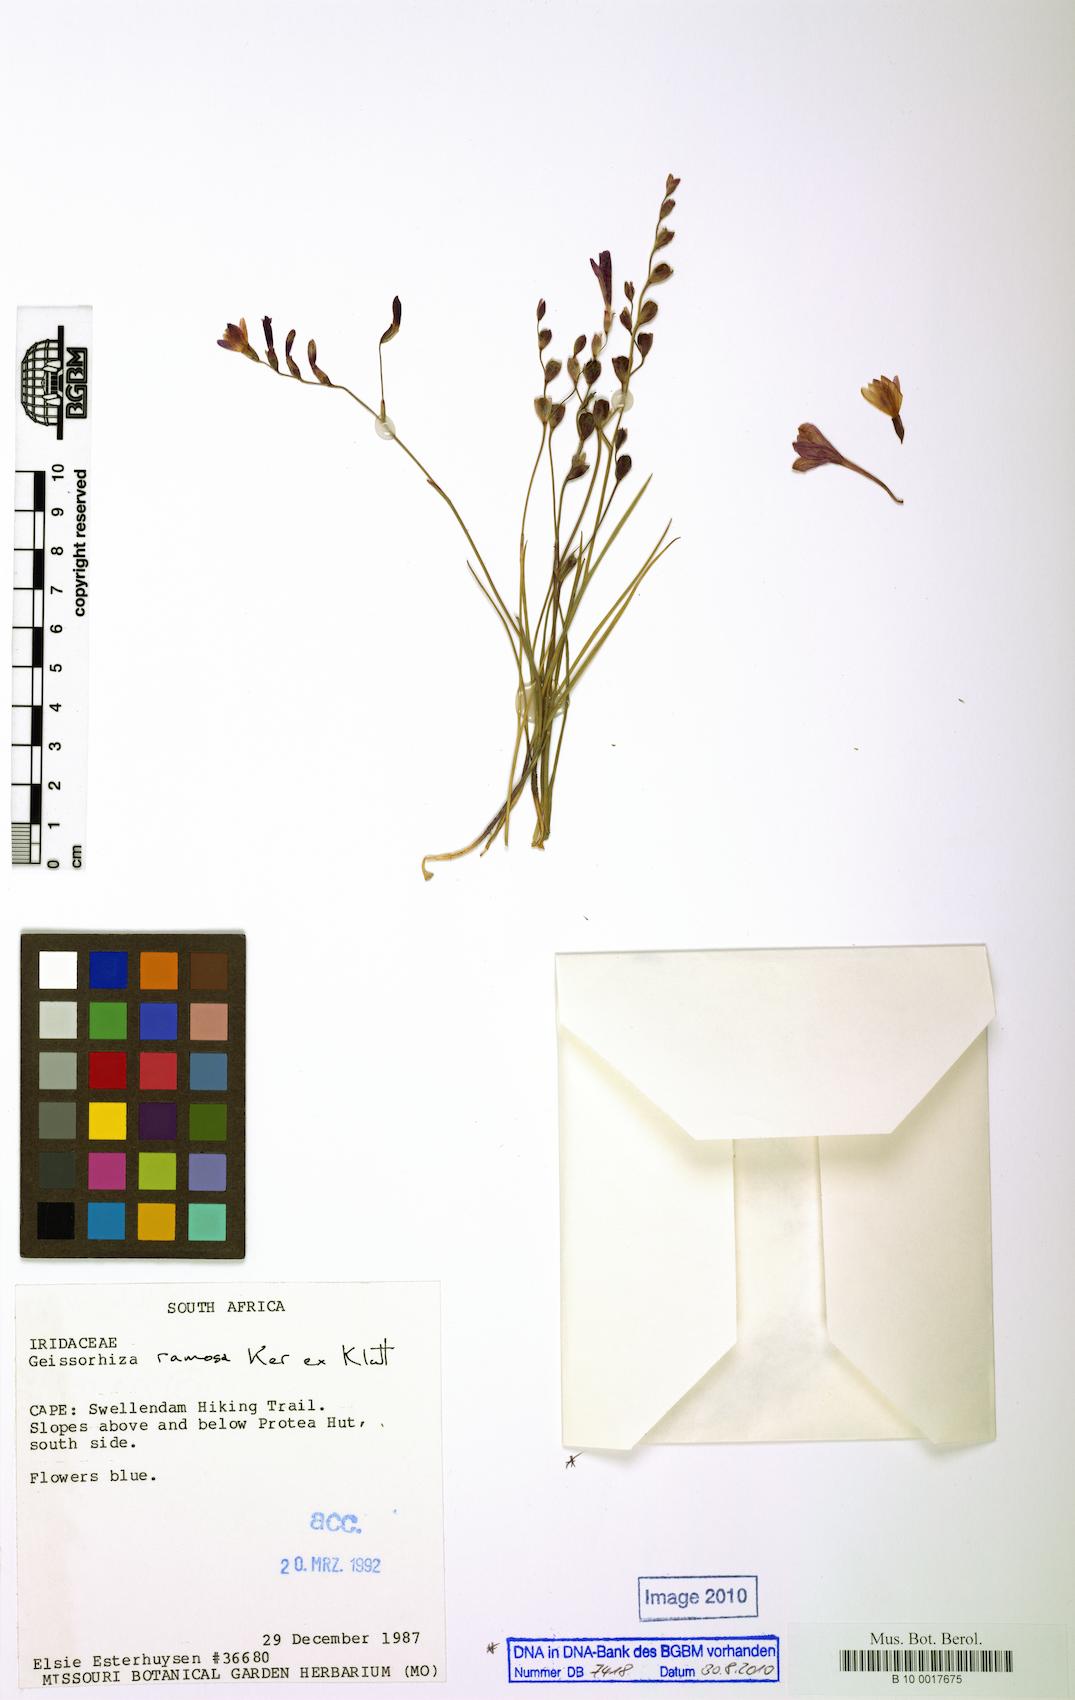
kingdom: Plantae
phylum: Tracheophyta
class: Liliopsida
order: Asparagales
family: Iridaceae
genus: Geissorhiza
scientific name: Geissorhiza ramosa
